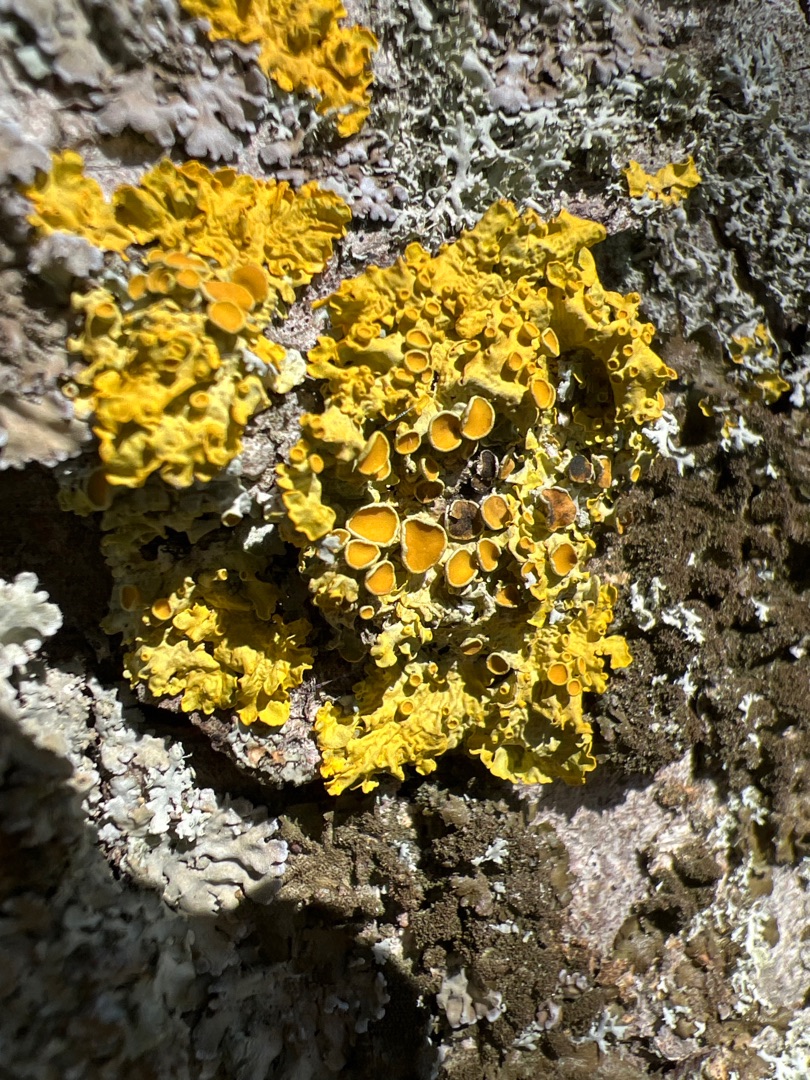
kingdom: Fungi
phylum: Ascomycota
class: Lecanoromycetes
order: Teloschistales
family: Teloschistaceae
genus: Xanthoria
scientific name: Xanthoria parietina
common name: Almindelig væggelav
